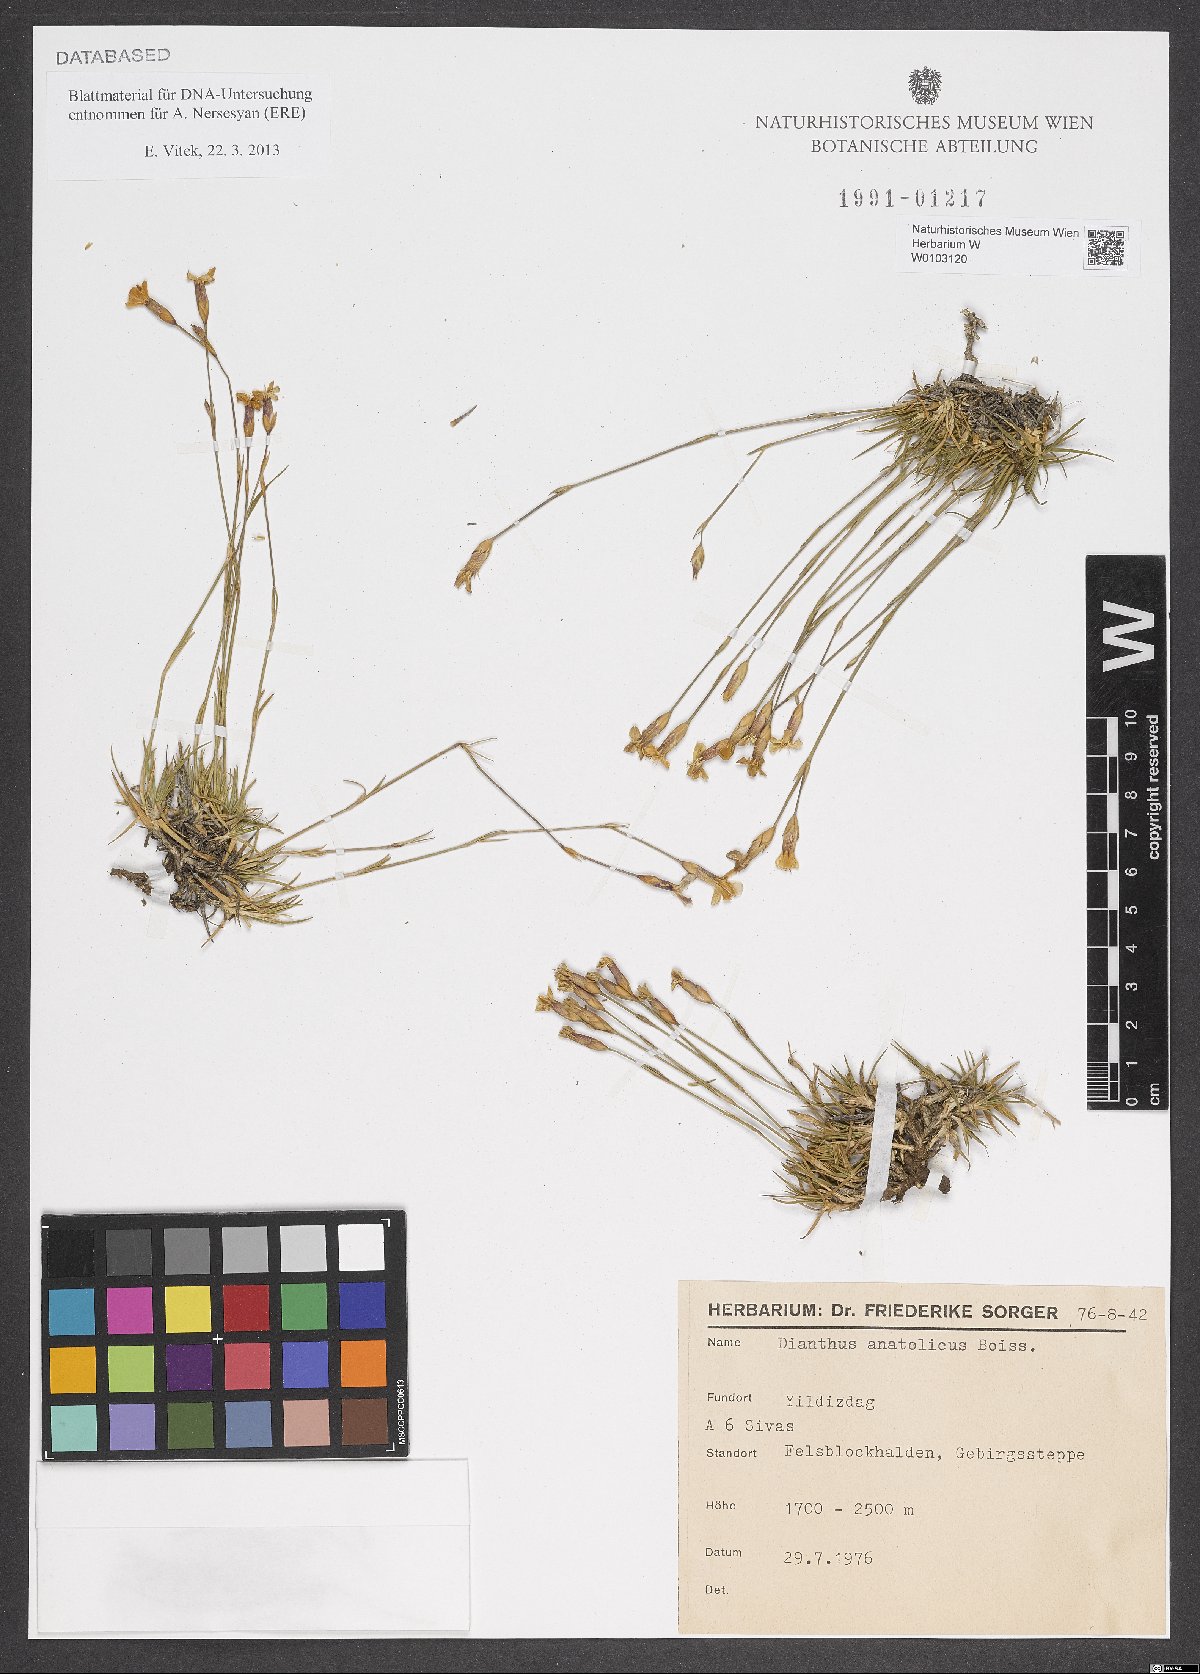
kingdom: Plantae
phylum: Tracheophyta
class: Magnoliopsida
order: Caryophyllales
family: Caryophyllaceae
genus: Dianthus
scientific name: Dianthus anatolicus
